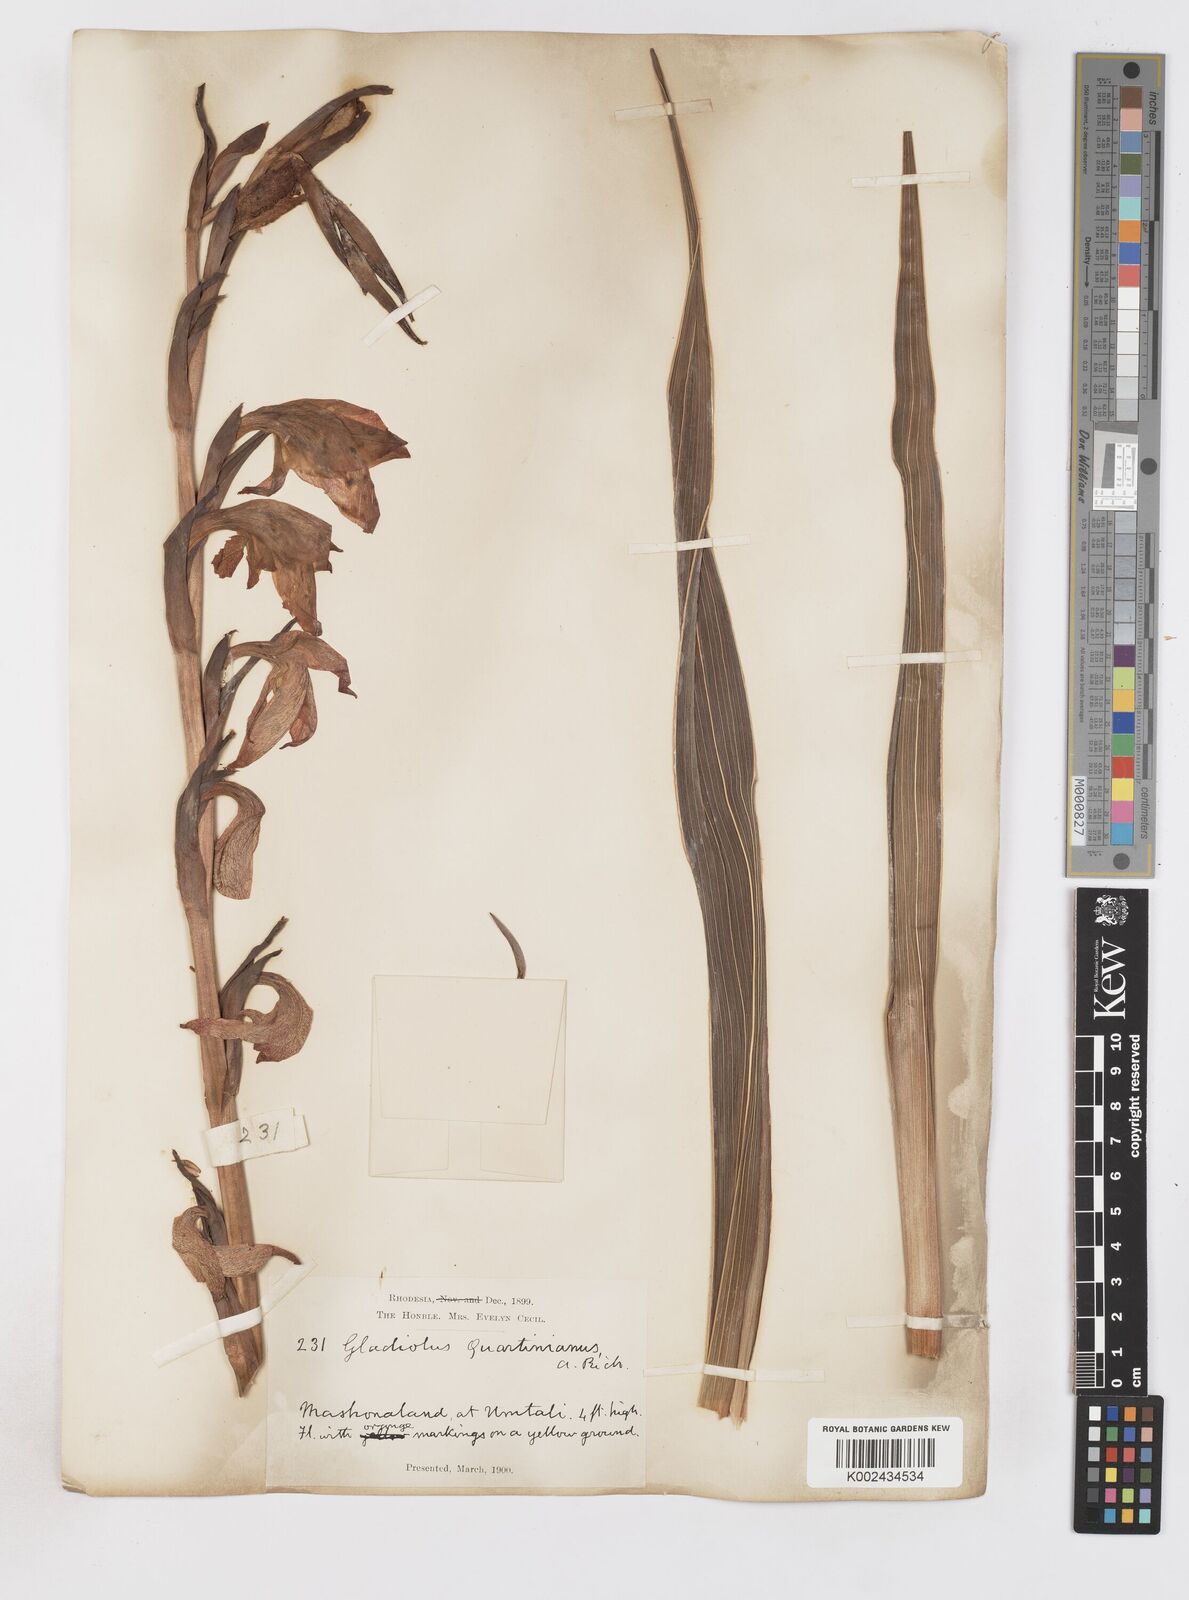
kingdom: Plantae
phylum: Tracheophyta
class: Liliopsida
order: Asparagales
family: Iridaceae
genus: Gladiolus
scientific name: Gladiolus dalenii
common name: Cornflag
